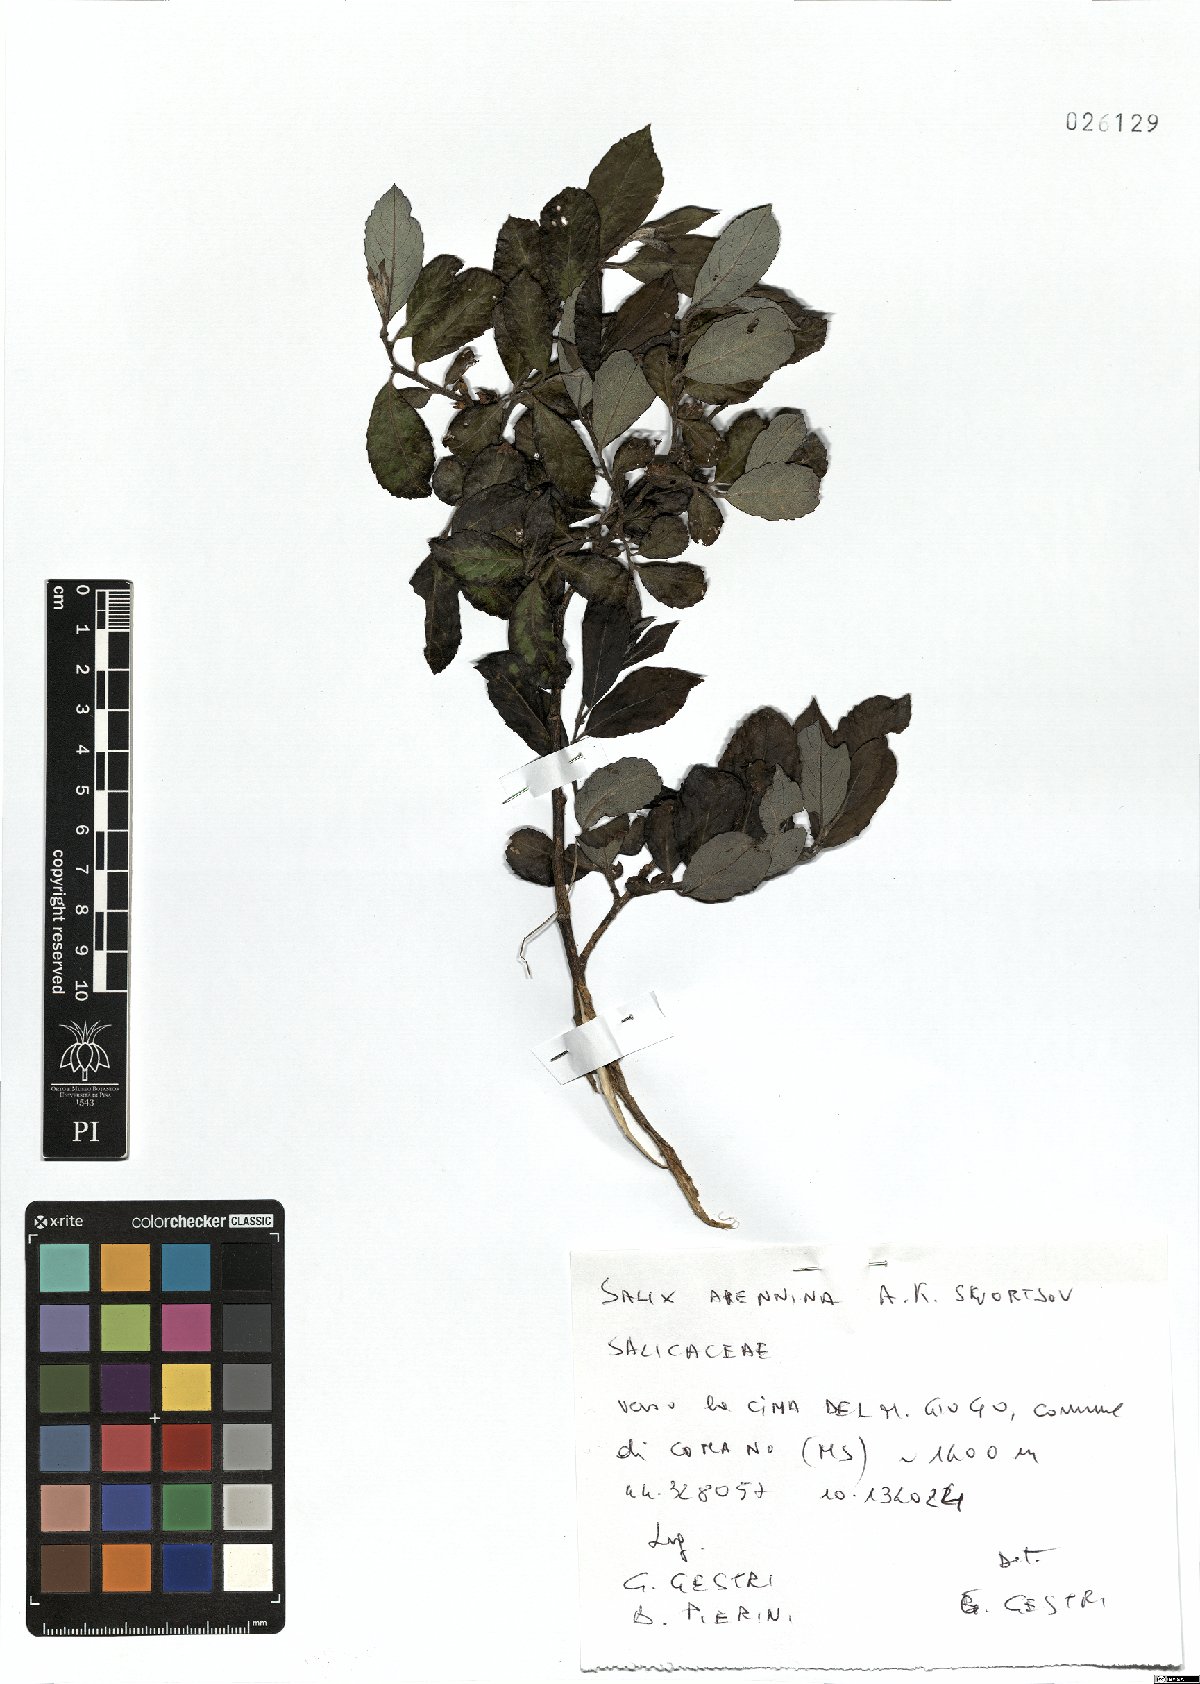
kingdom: Plantae
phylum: Tracheophyta
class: Magnoliopsida
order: Malpighiales
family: Salicaceae
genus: Salix
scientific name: Salix apennina
